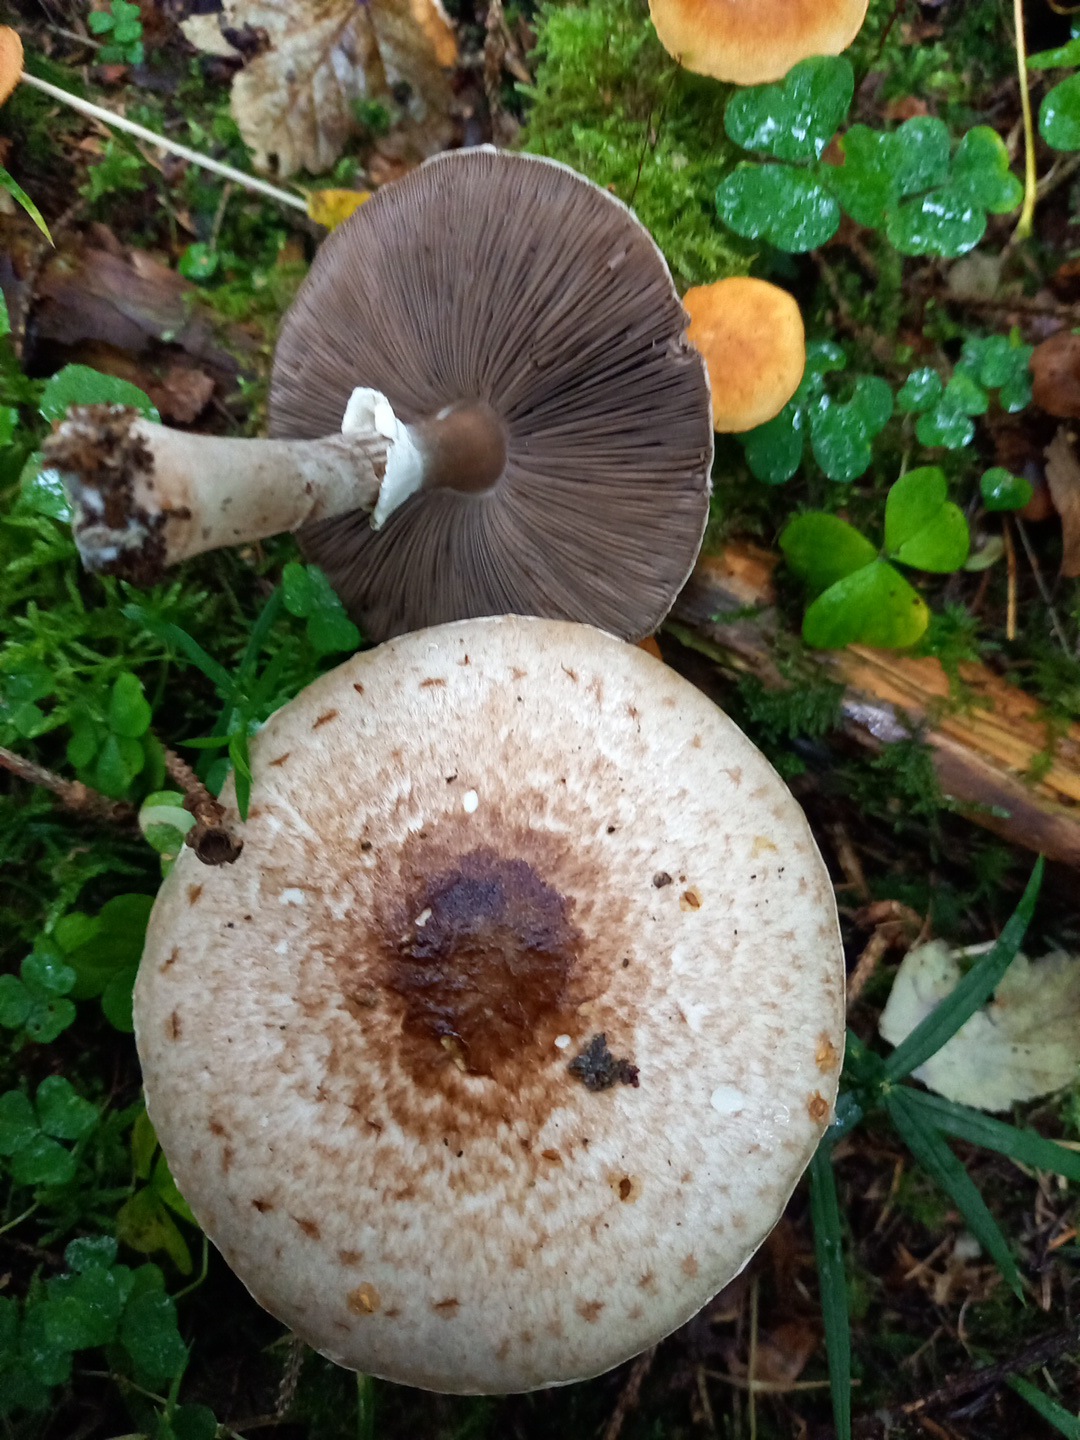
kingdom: Fungi
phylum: Basidiomycota
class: Agaricomycetes
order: Agaricales
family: Agaricaceae
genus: Agaricus
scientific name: Agaricus impudicus
